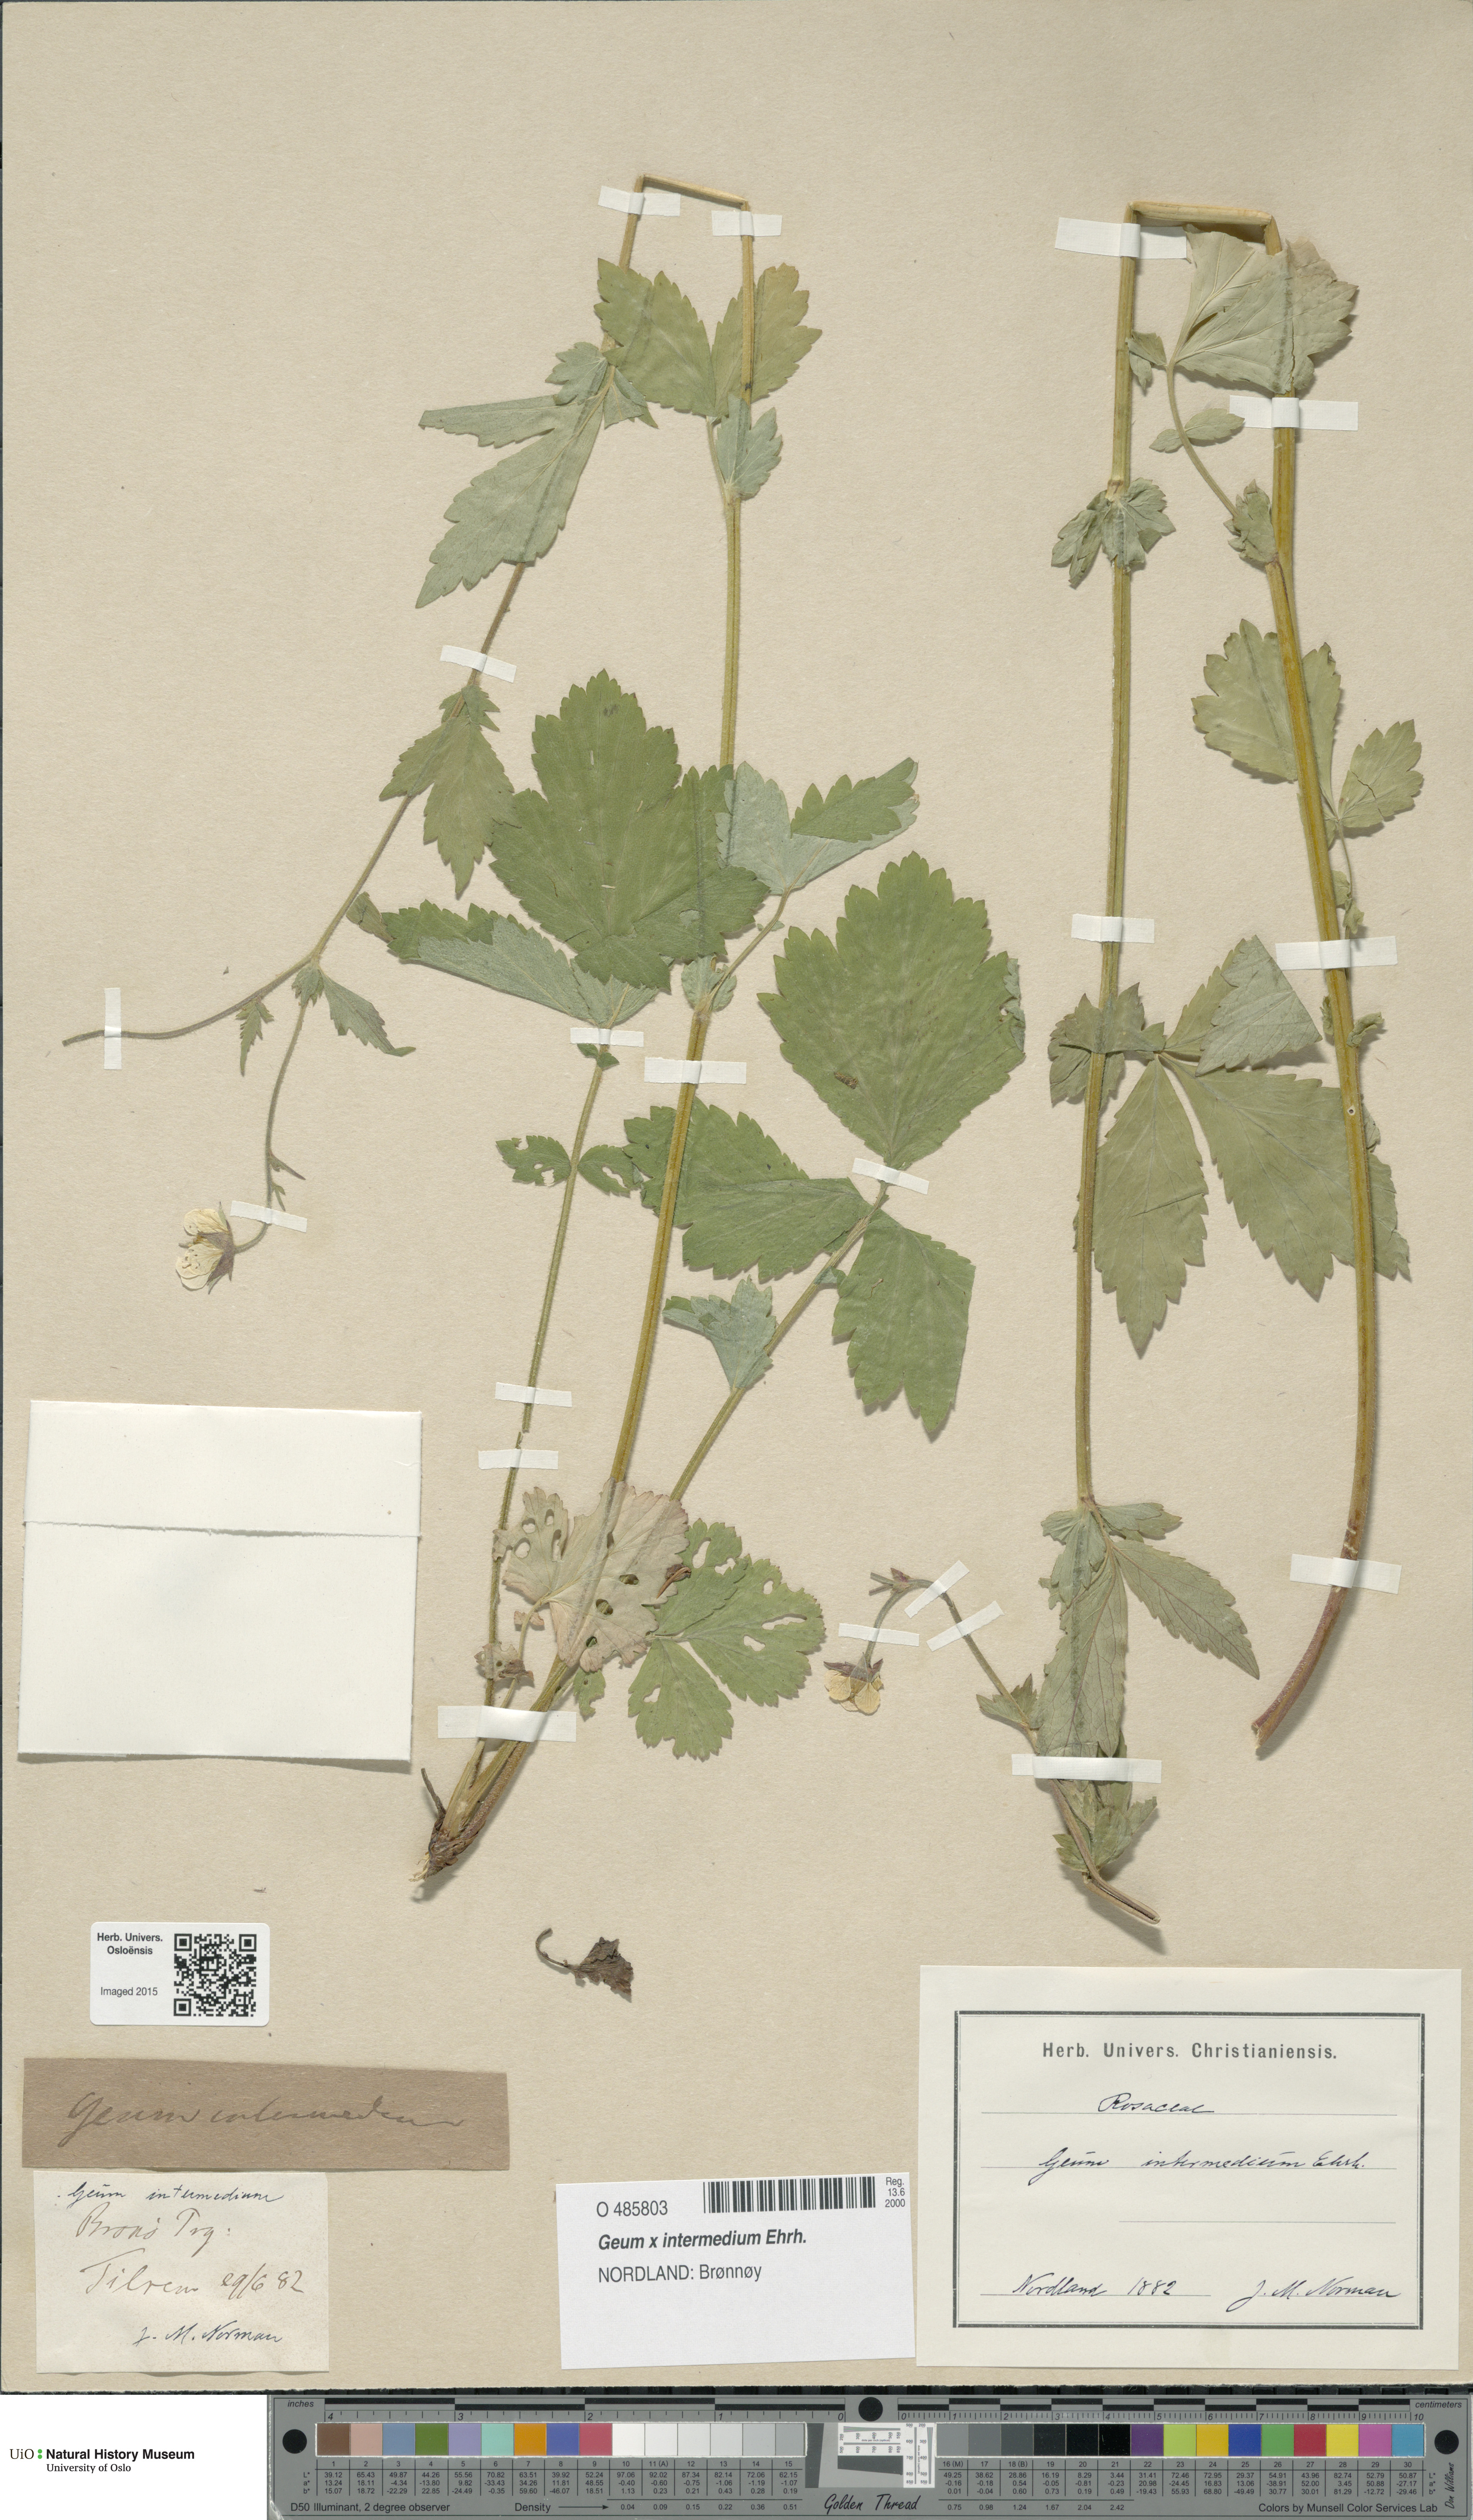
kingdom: Plantae
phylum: Tracheophyta
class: Magnoliopsida
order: Rosales
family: Rosaceae
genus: Geum
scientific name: Geum intermedium
